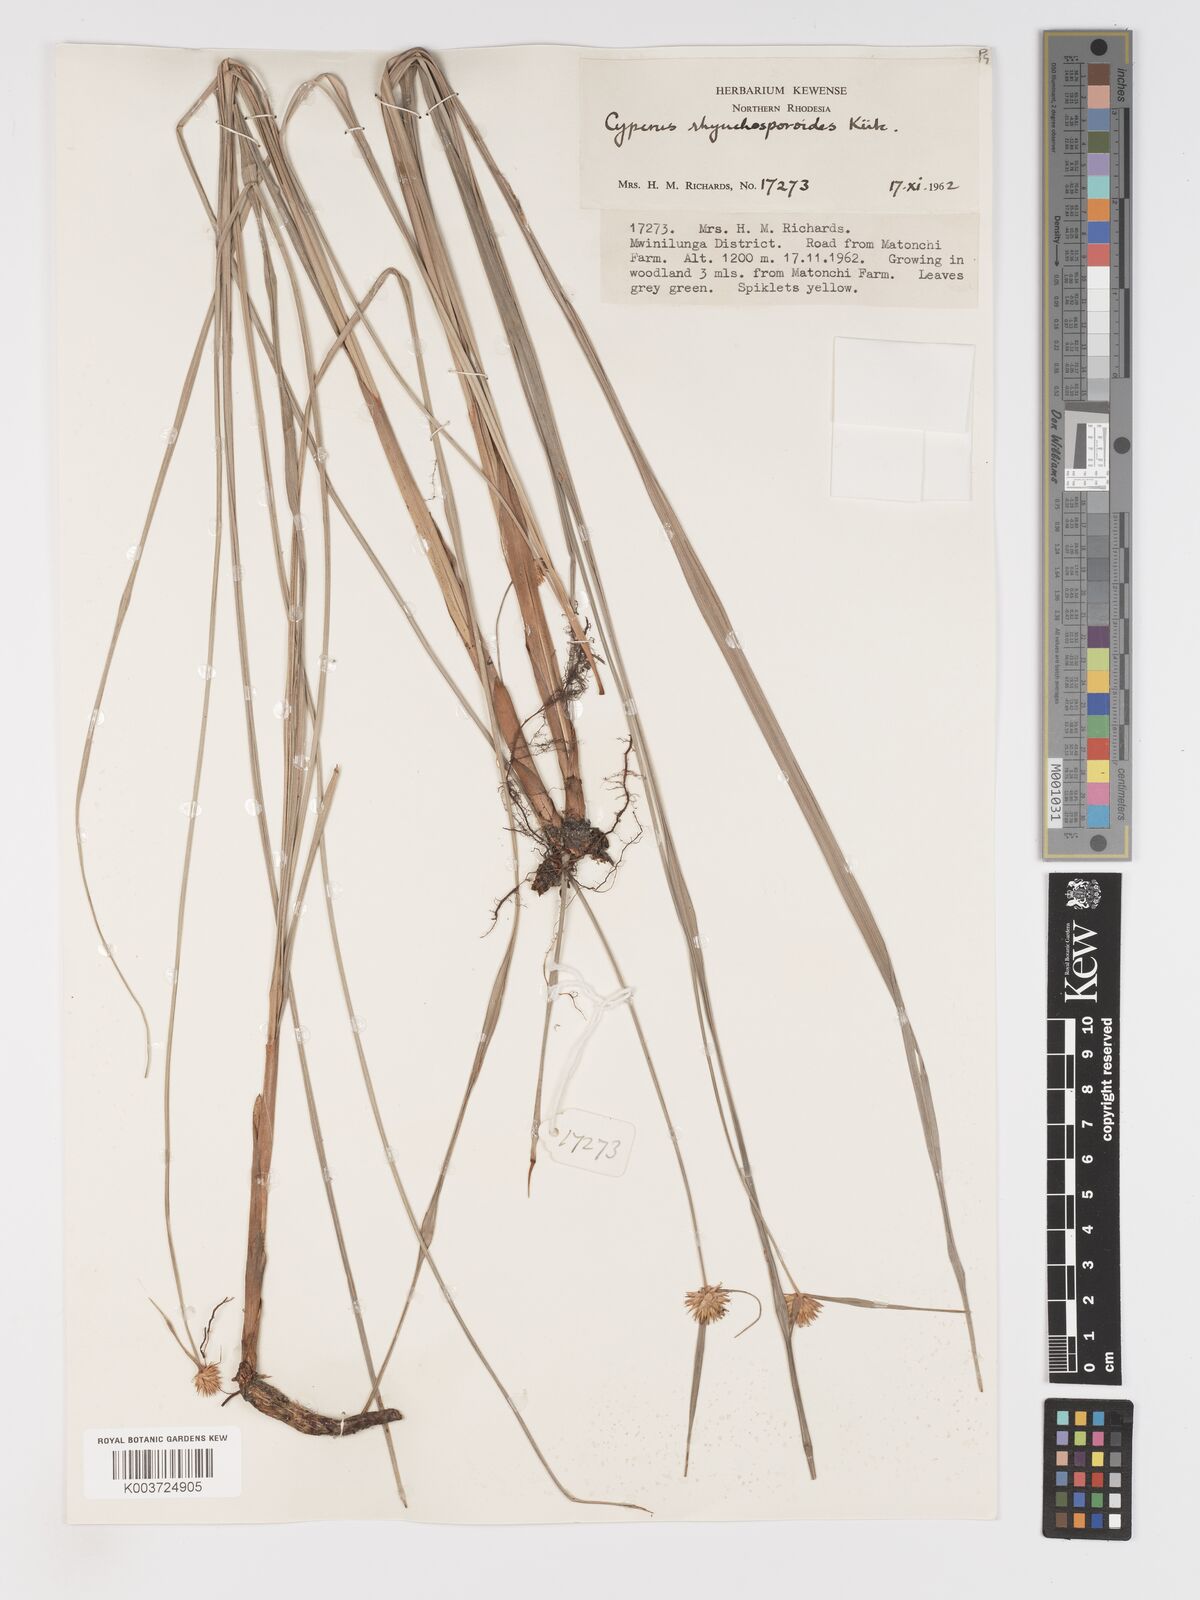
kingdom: Plantae
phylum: Tracheophyta
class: Liliopsida
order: Poales
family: Cyperaceae
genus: Cyperus
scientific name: Cyperus altochrysocephalus
